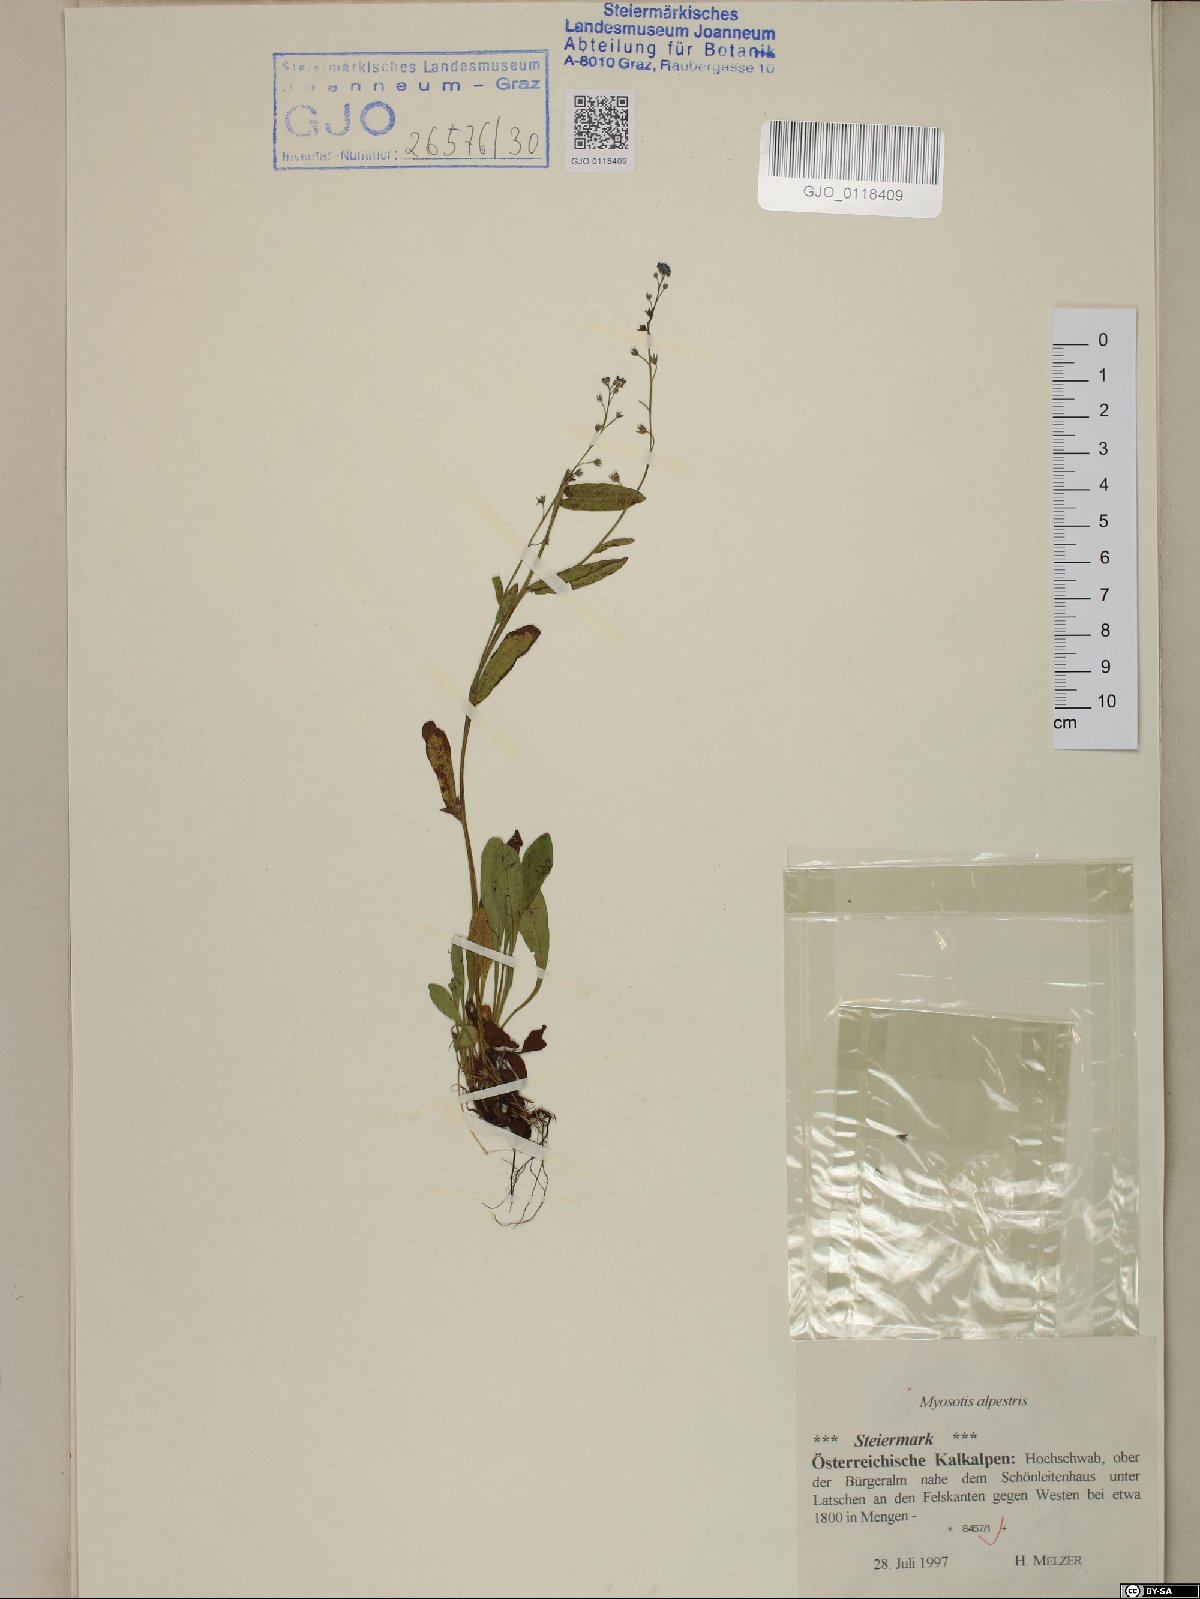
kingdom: Plantae
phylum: Tracheophyta
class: Magnoliopsida
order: Boraginales
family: Boraginaceae
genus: Myosotis
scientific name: Myosotis alpestris
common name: Alpine forget-me-not
